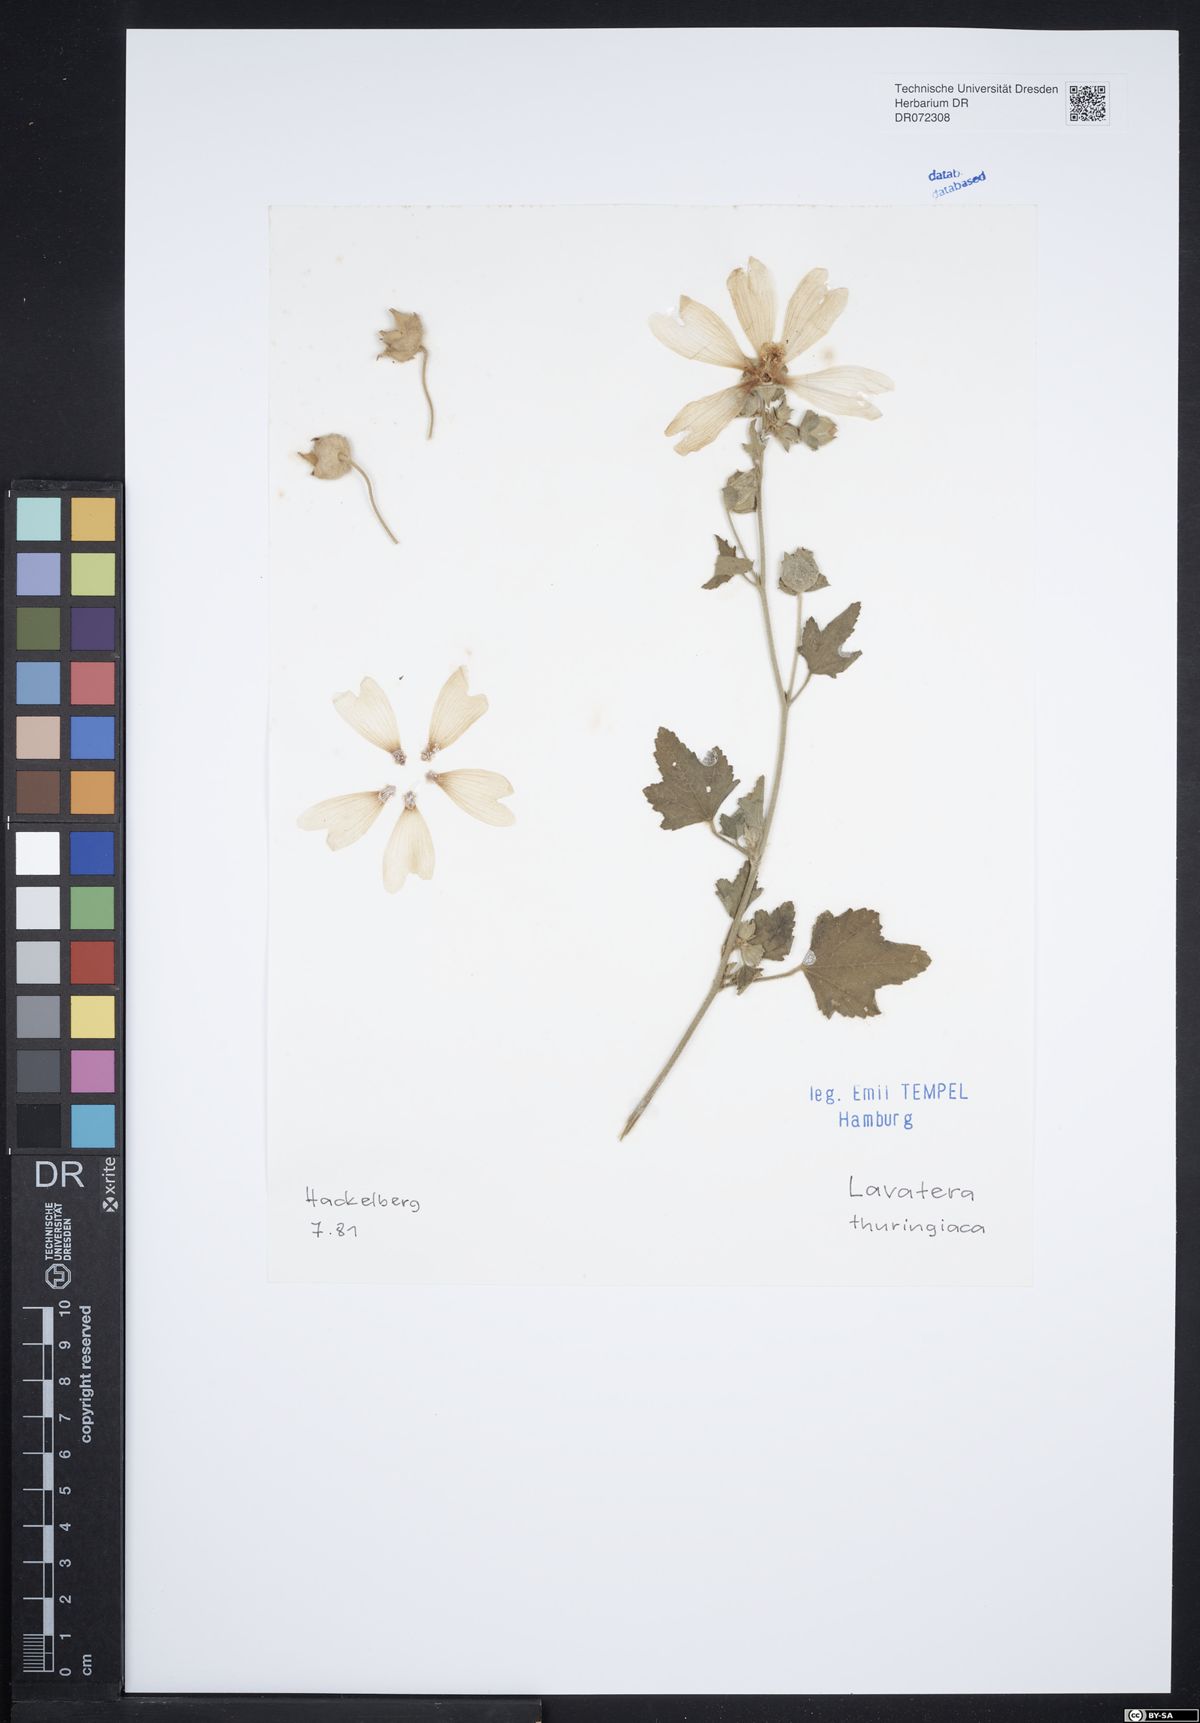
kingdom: Plantae
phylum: Tracheophyta
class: Magnoliopsida
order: Malvales
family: Malvaceae
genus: Malva
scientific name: Malva thuringiaca
